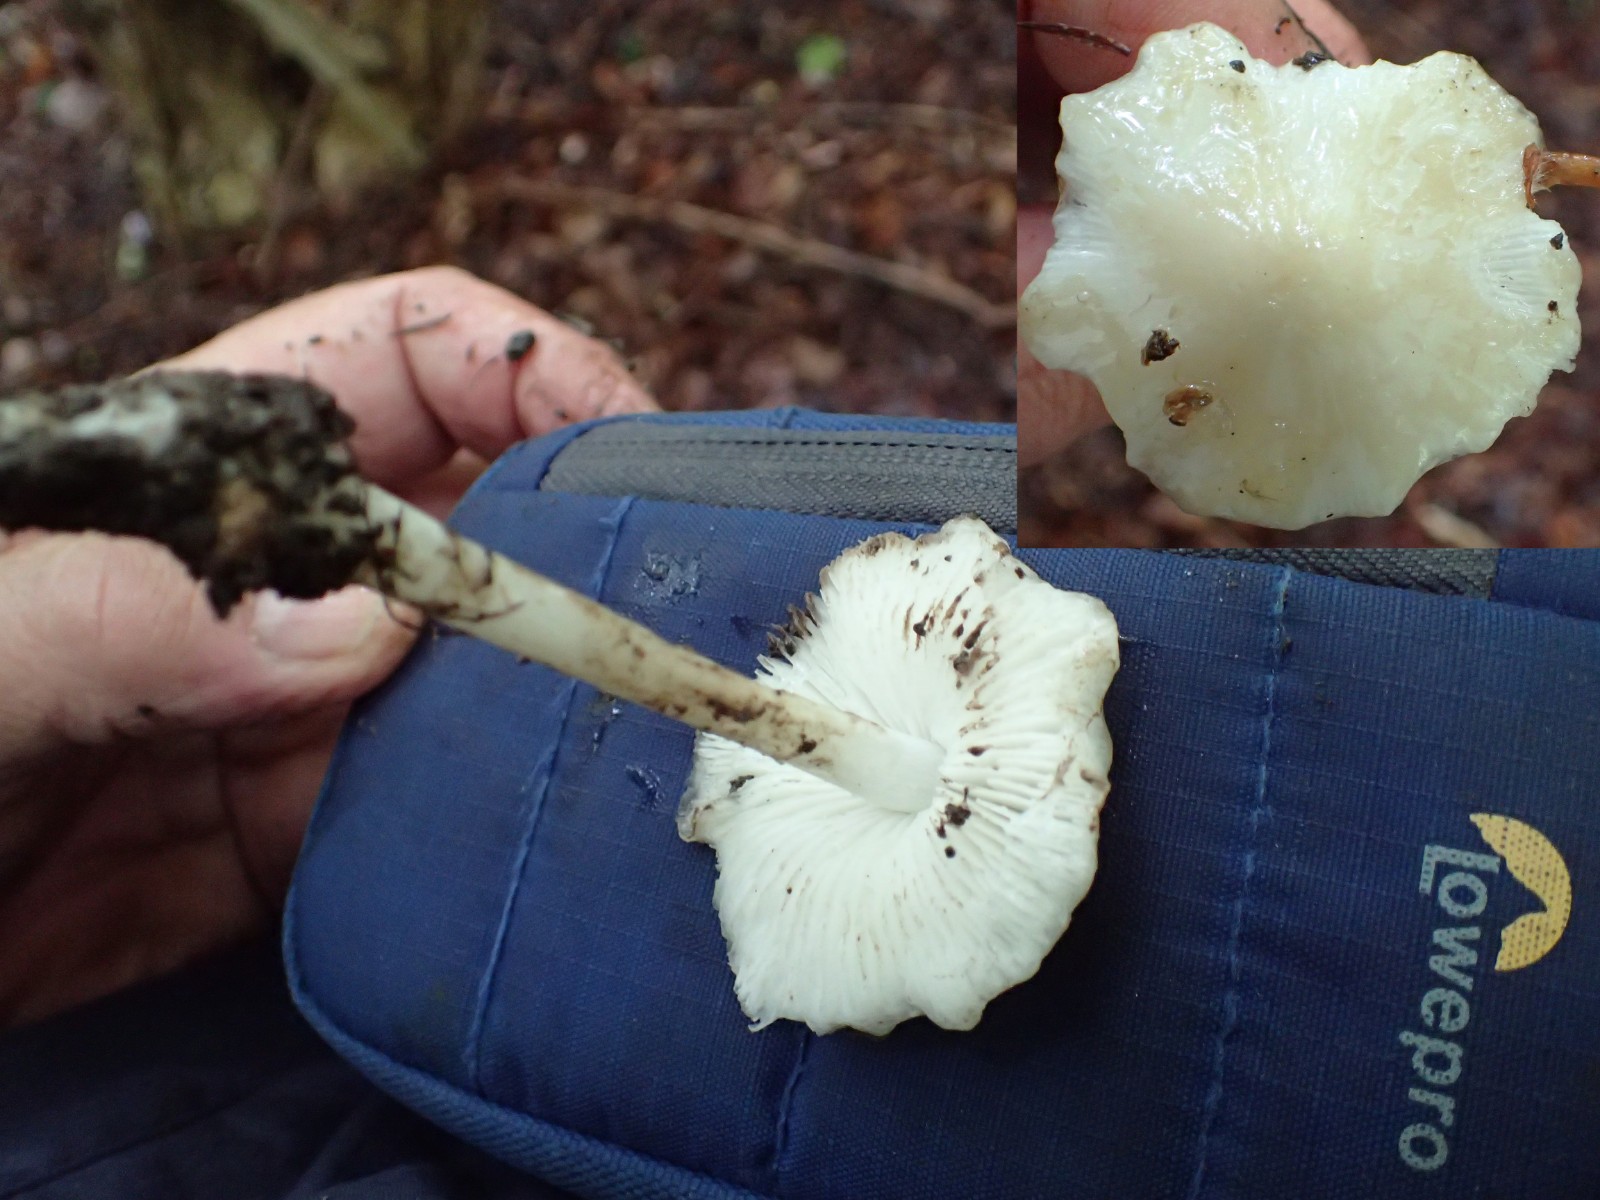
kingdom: Fungi
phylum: Basidiomycota
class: Agaricomycetes
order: Agaricales
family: Omphalotaceae
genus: Gymnopus
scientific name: Gymnopus dryophilus
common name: løv-fladhat
